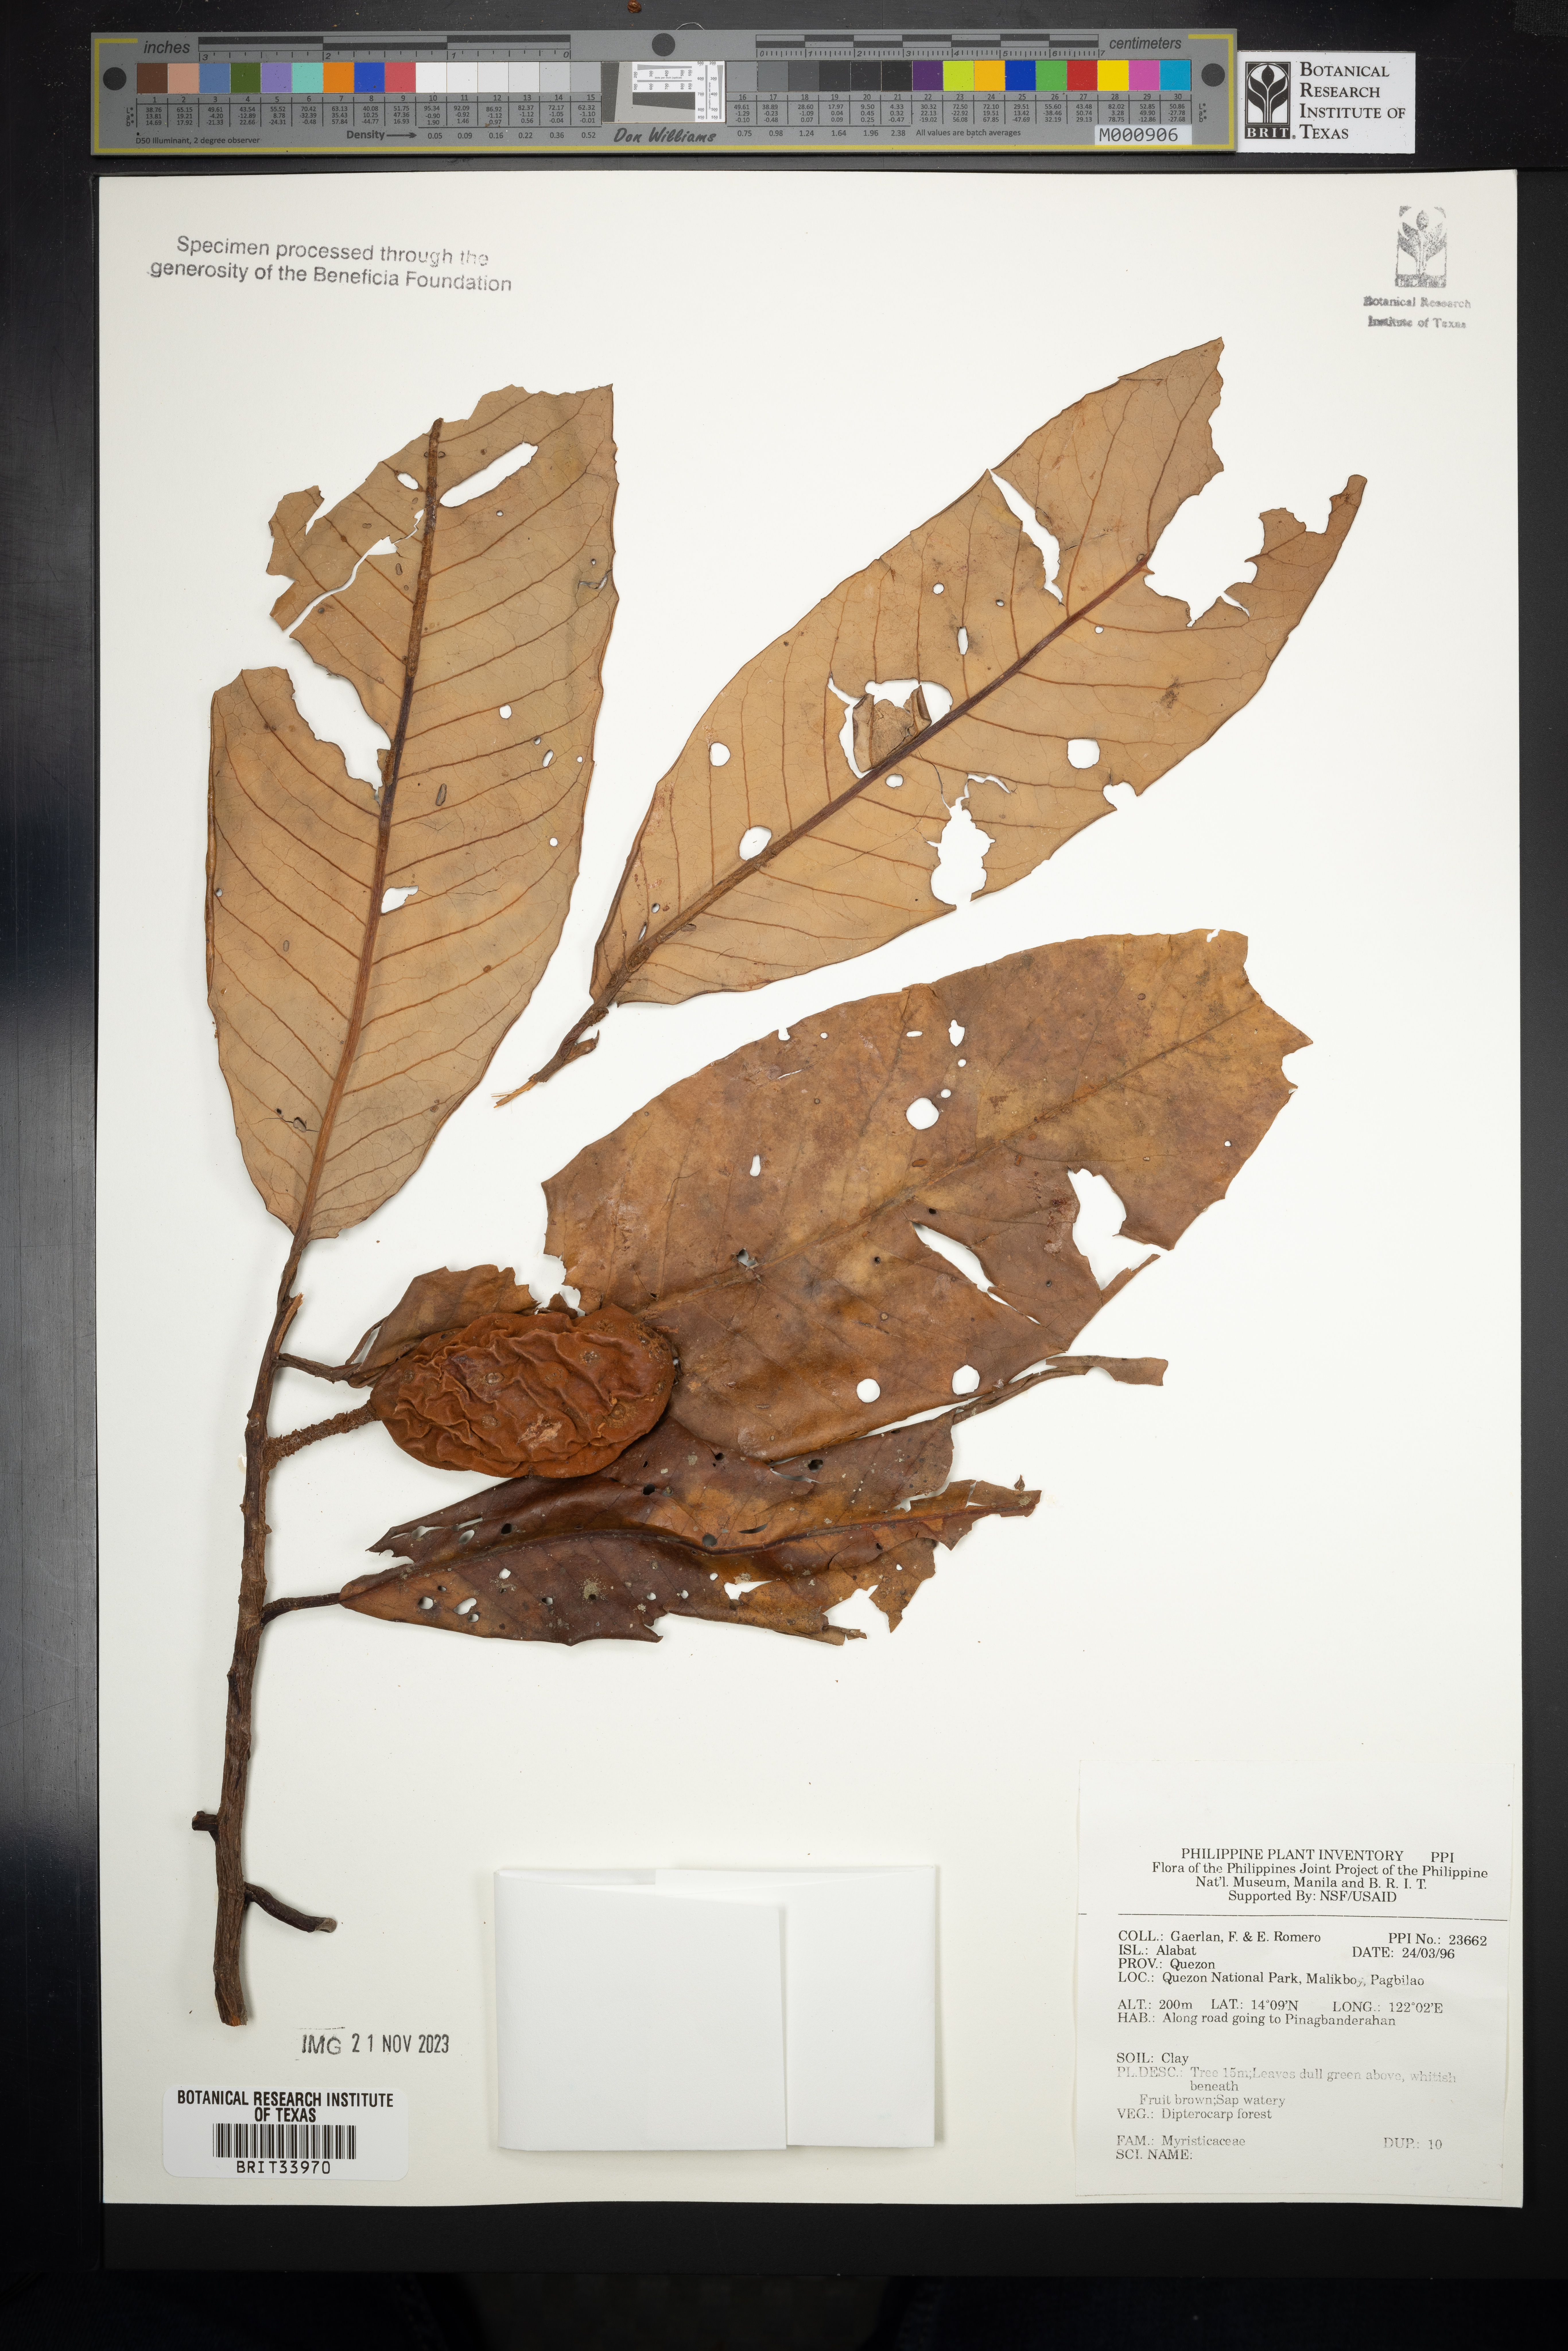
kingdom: Plantae
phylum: Tracheophyta
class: Magnoliopsida
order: Magnoliales
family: Myristicaceae
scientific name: Myristicaceae
